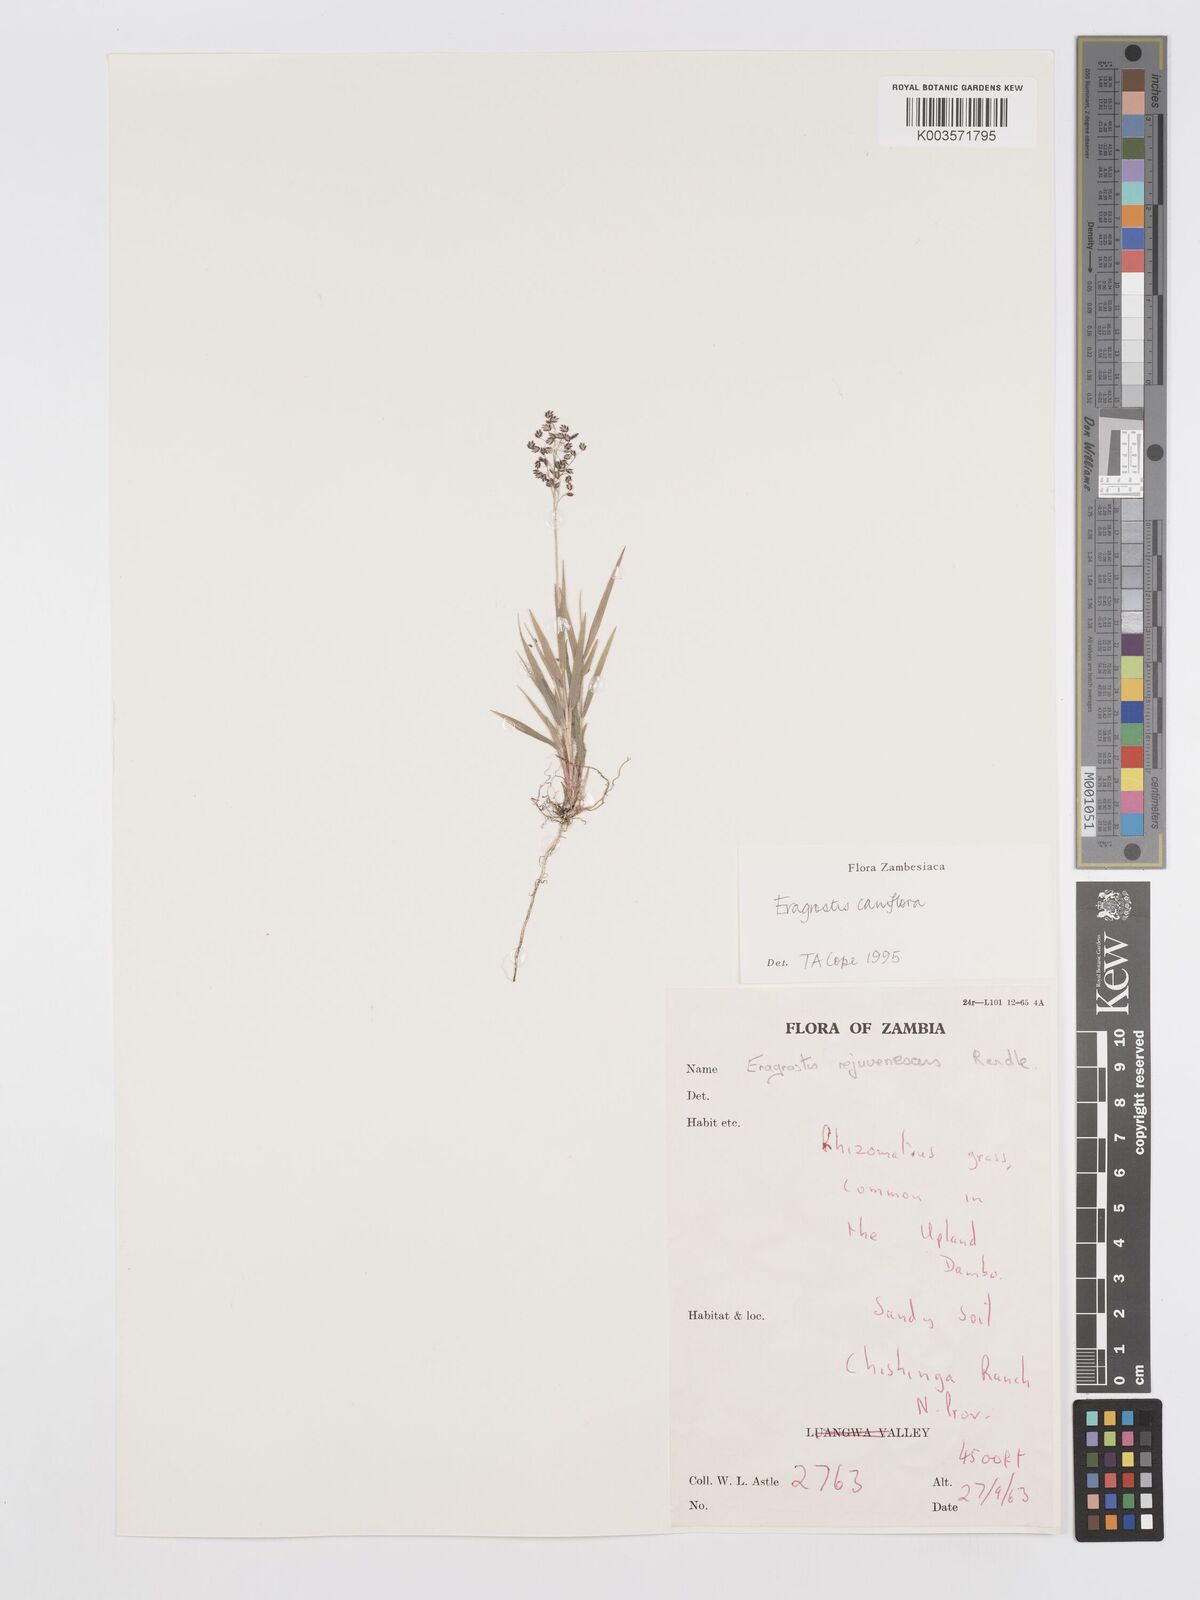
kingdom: Plantae
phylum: Tracheophyta
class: Liliopsida
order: Poales
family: Poaceae
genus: Eragrostis
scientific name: Eragrostis caniflora
